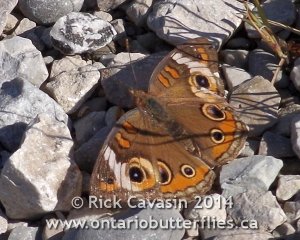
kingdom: Animalia
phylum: Arthropoda
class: Insecta
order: Lepidoptera
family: Nymphalidae
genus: Junonia
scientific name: Junonia coenia
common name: Common Buckeye
